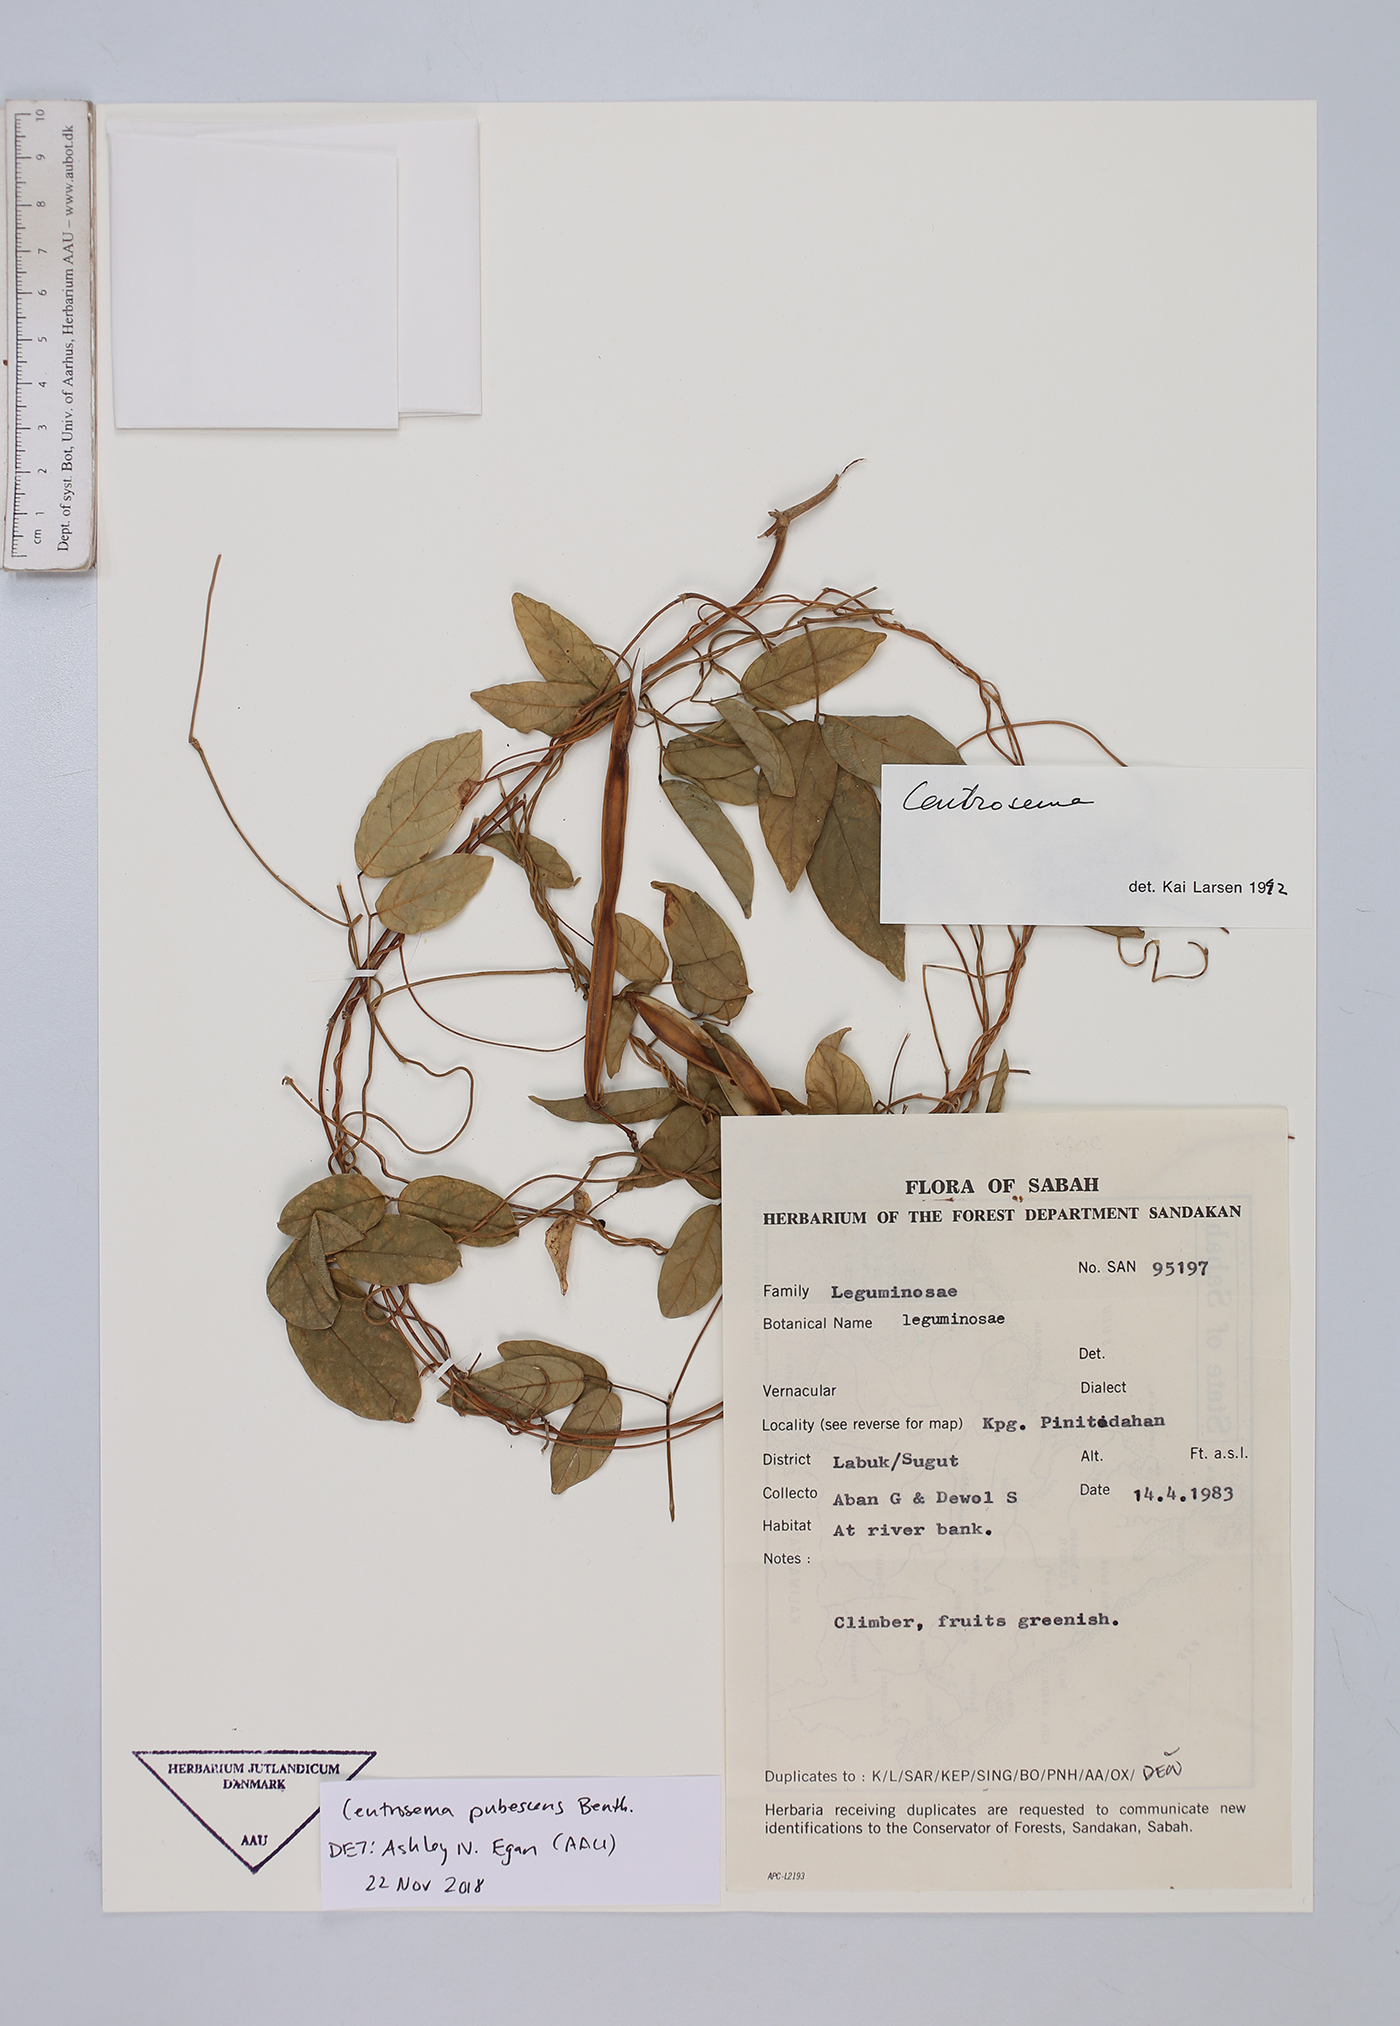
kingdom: Plantae
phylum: Tracheophyta
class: Magnoliopsida
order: Fabales
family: Fabaceae
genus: Centrosema
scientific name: Centrosema pubescens
